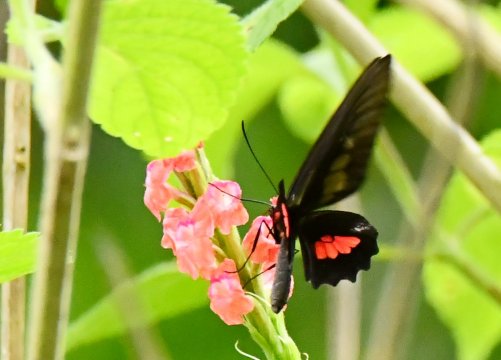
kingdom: Animalia
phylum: Arthropoda
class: Insecta
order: Lepidoptera
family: Papilionidae
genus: Parides
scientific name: Parides eurimedes
